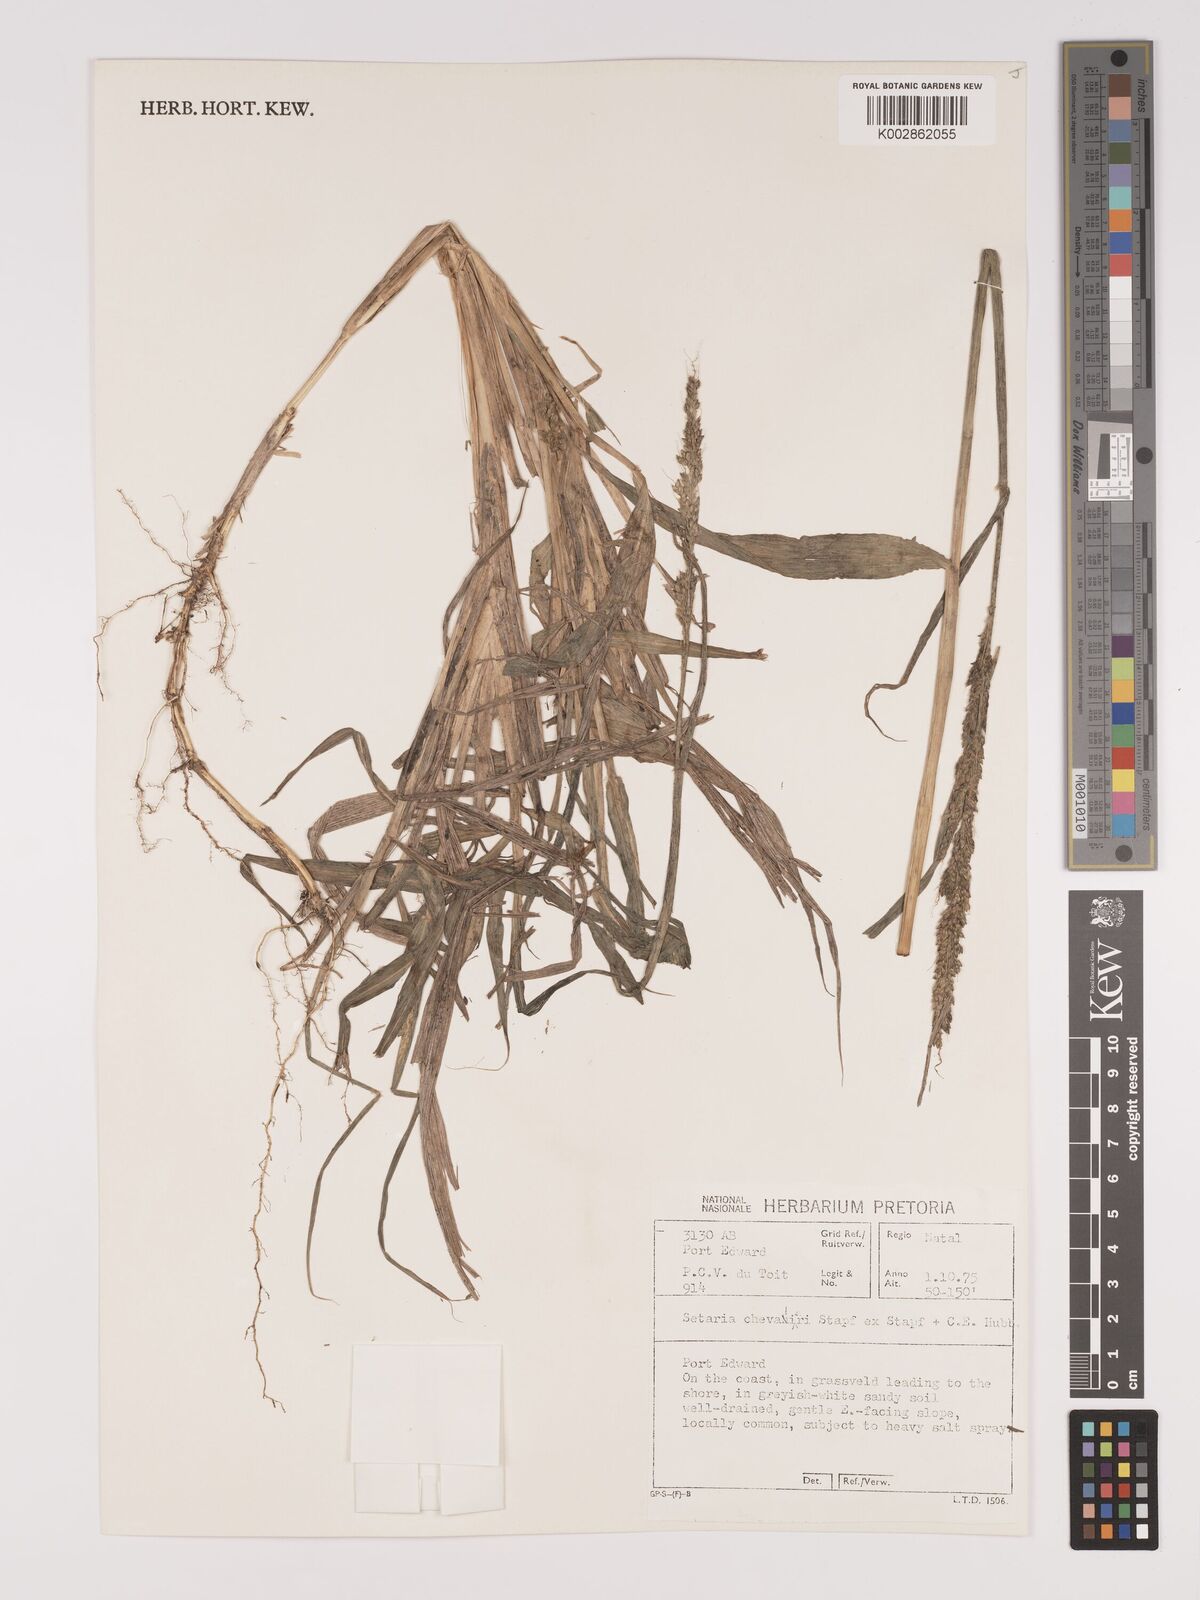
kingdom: Plantae
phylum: Tracheophyta
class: Liliopsida
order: Poales
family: Poaceae
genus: Setaria
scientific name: Setaria megaphylla
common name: Bigleaf bristlegrass
